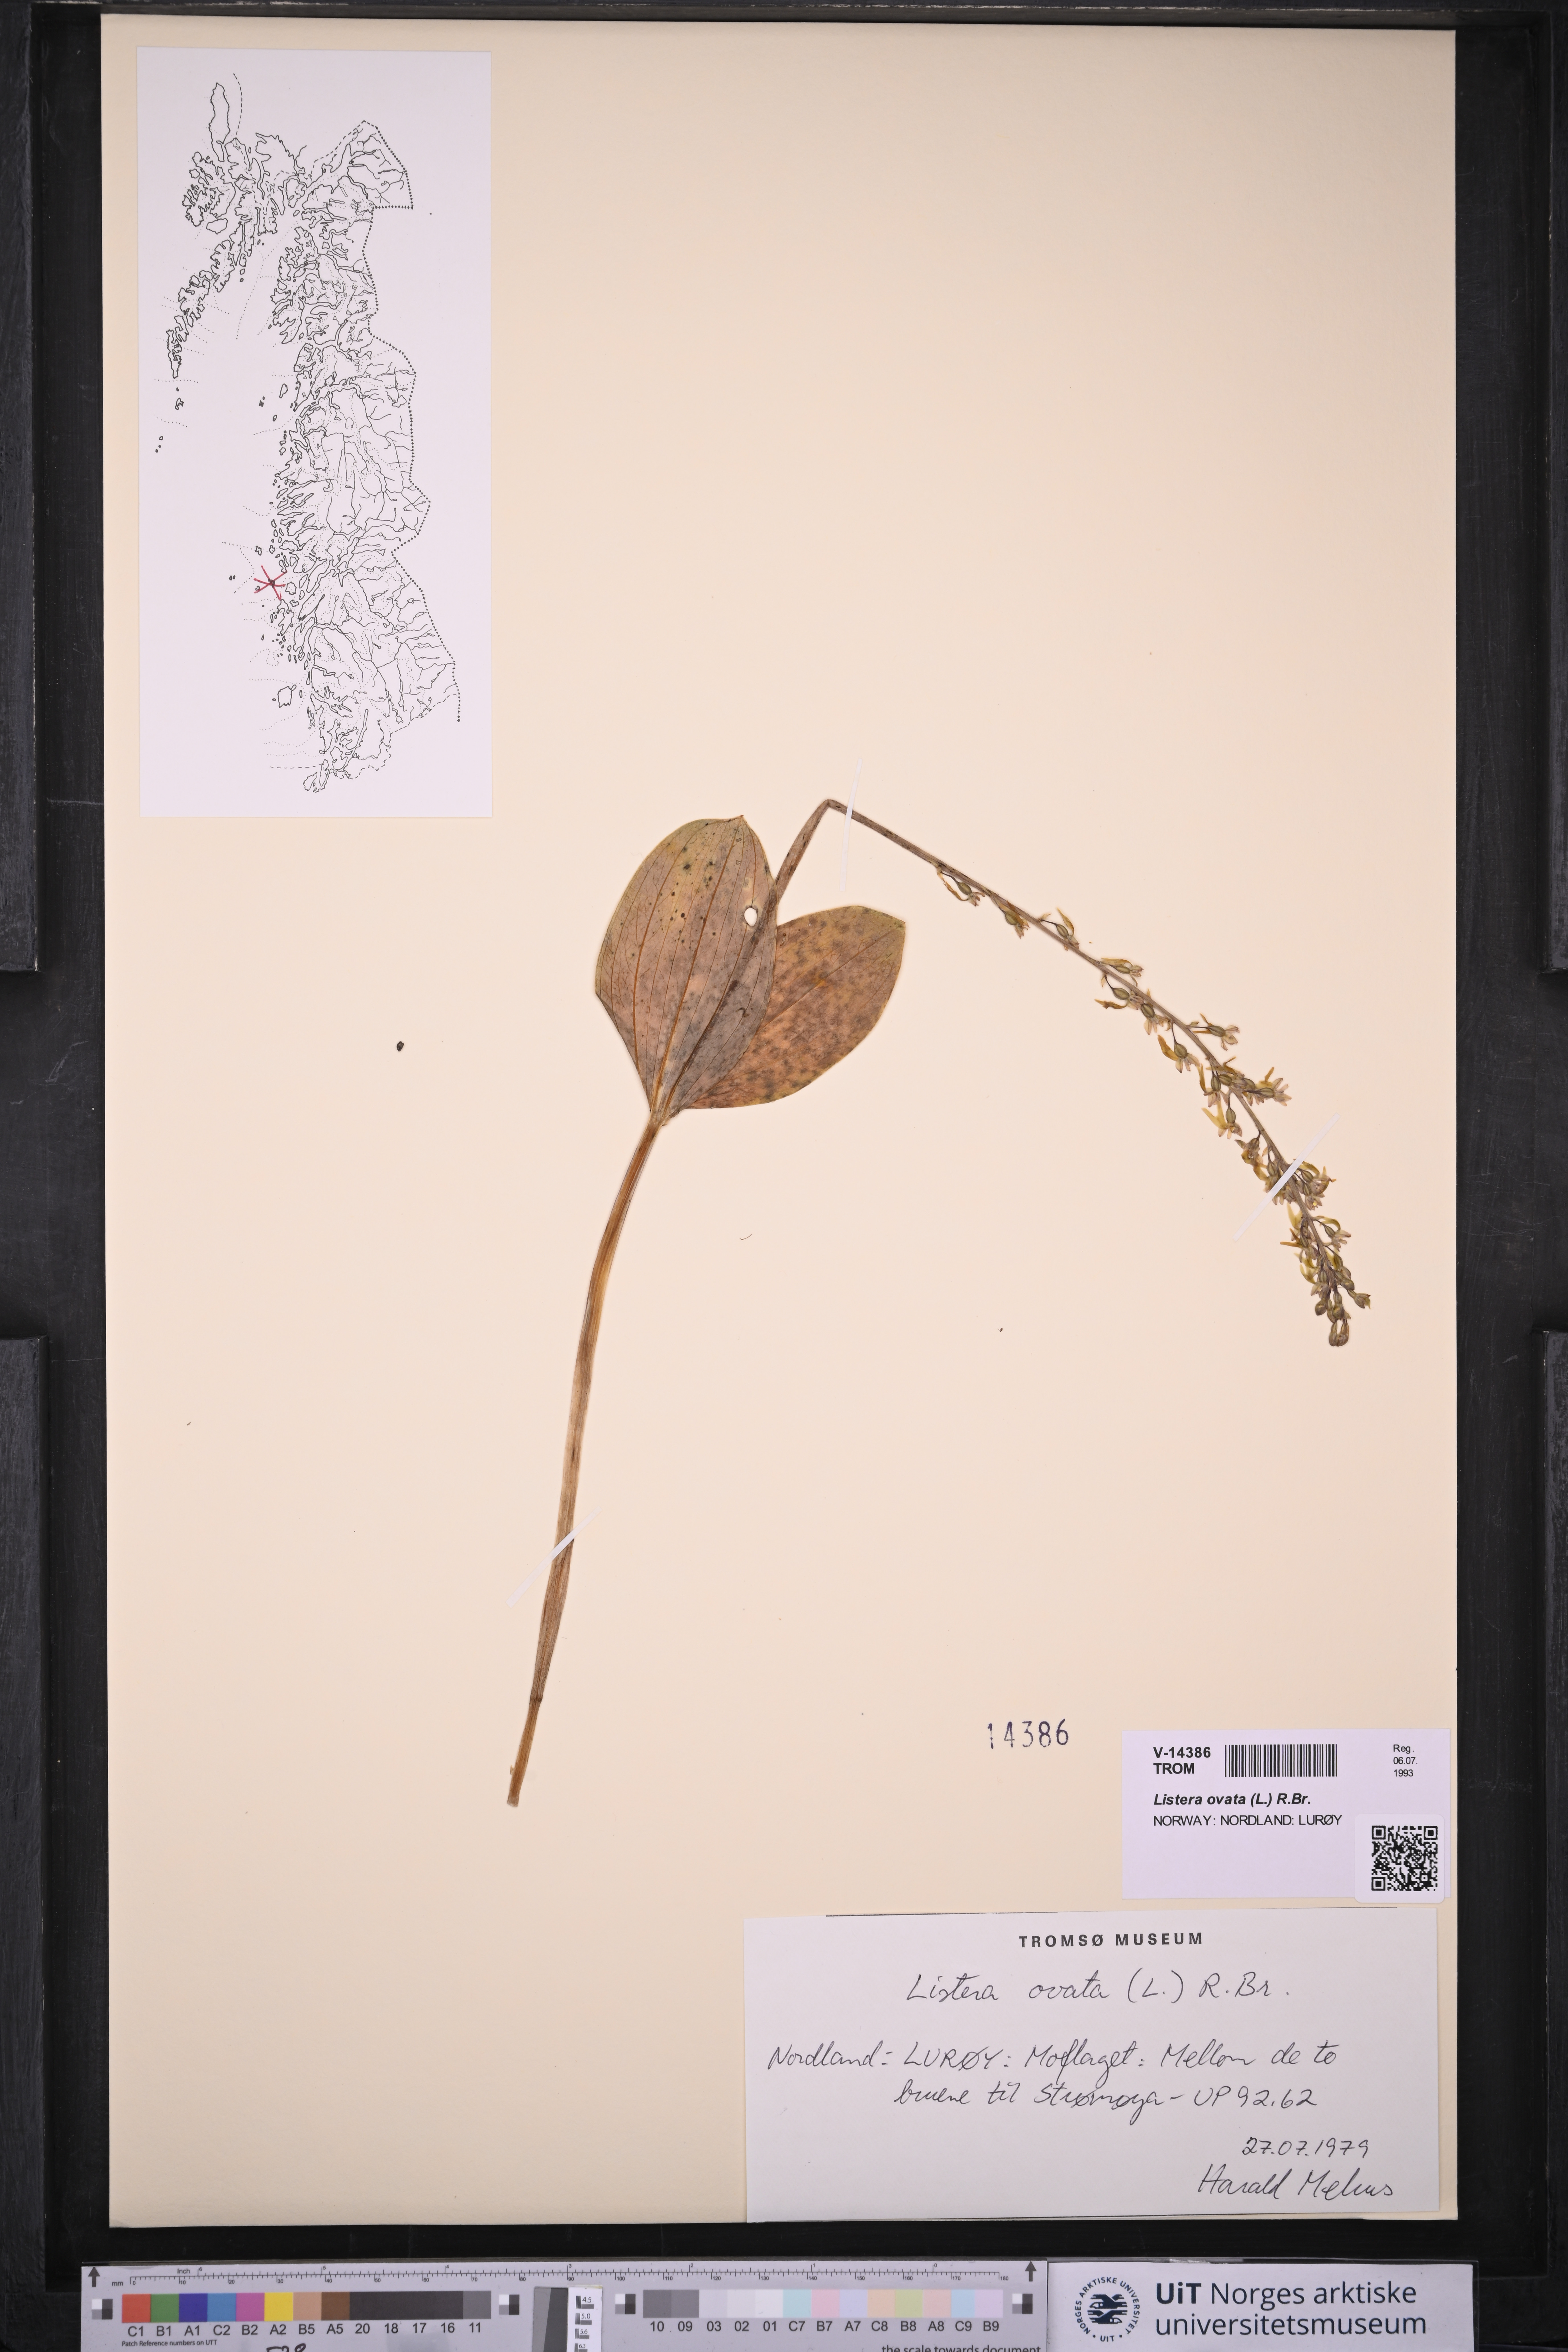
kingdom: Plantae
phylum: Tracheophyta
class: Liliopsida
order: Asparagales
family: Orchidaceae
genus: Neottia
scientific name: Neottia ovata
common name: Common twayblade
